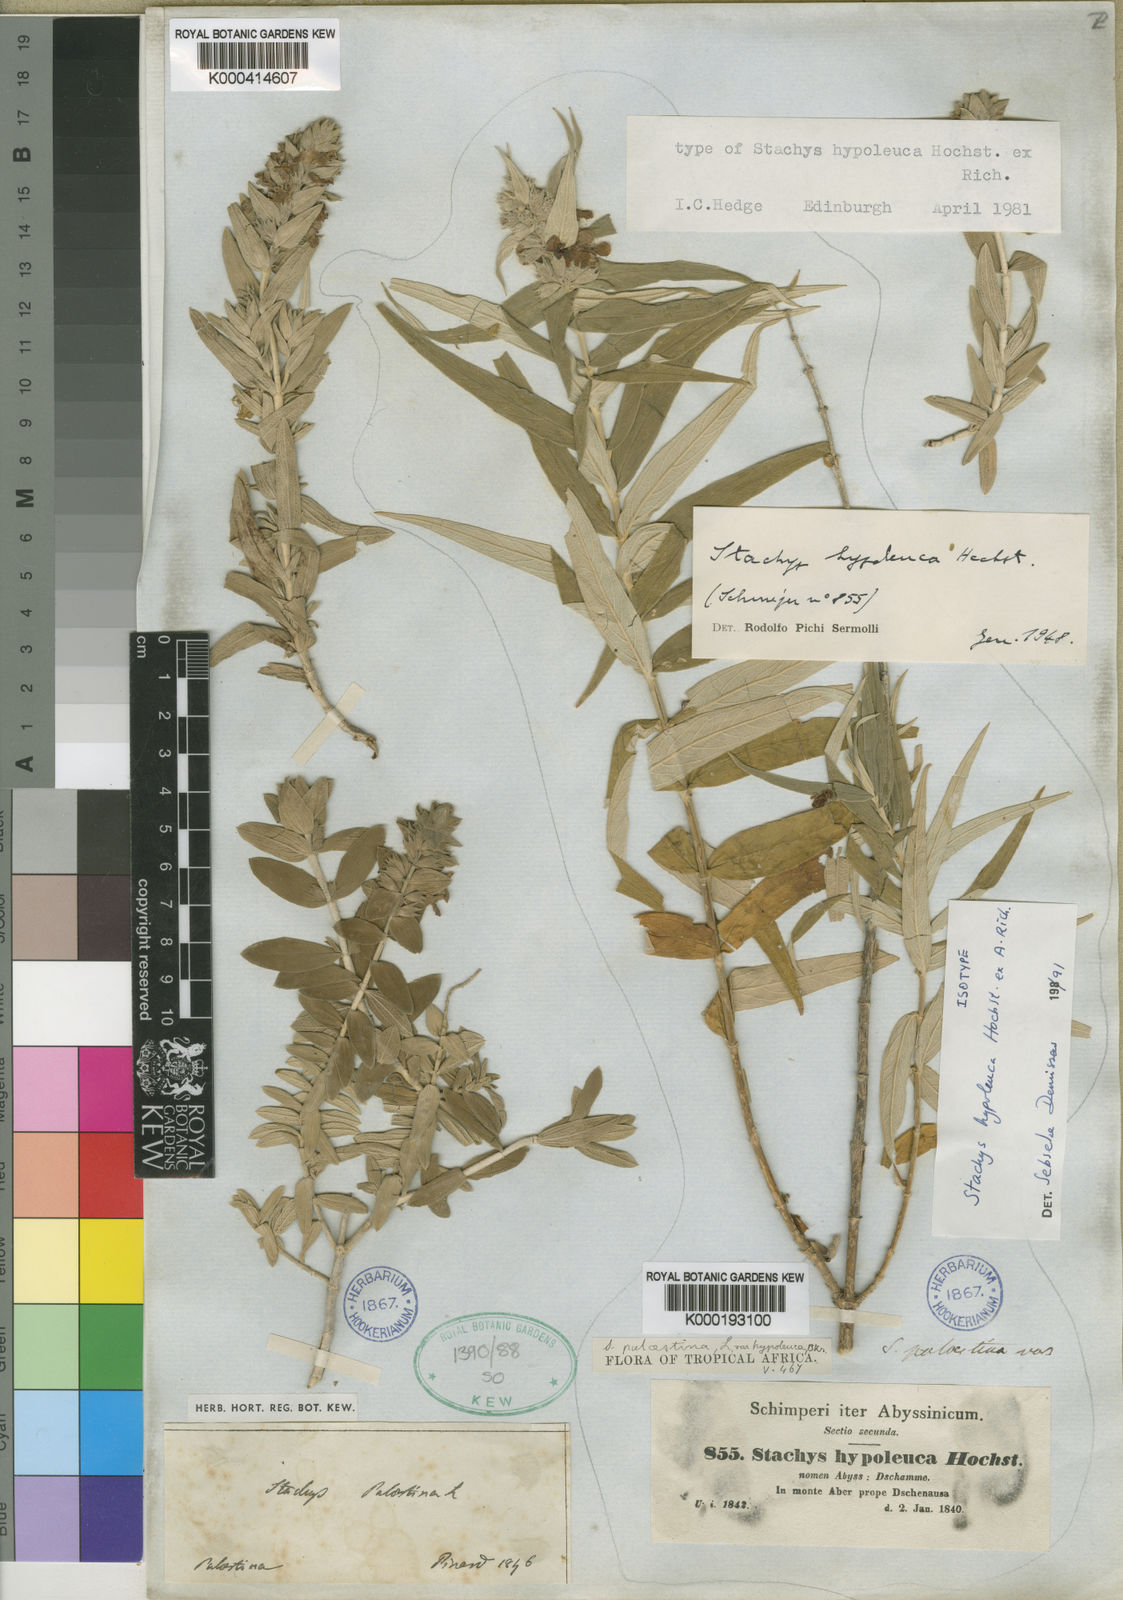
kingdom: Plantae
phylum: Tracheophyta
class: Magnoliopsida
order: Lamiales
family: Lamiaceae
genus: Stachys
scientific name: Stachys hypoleuca
